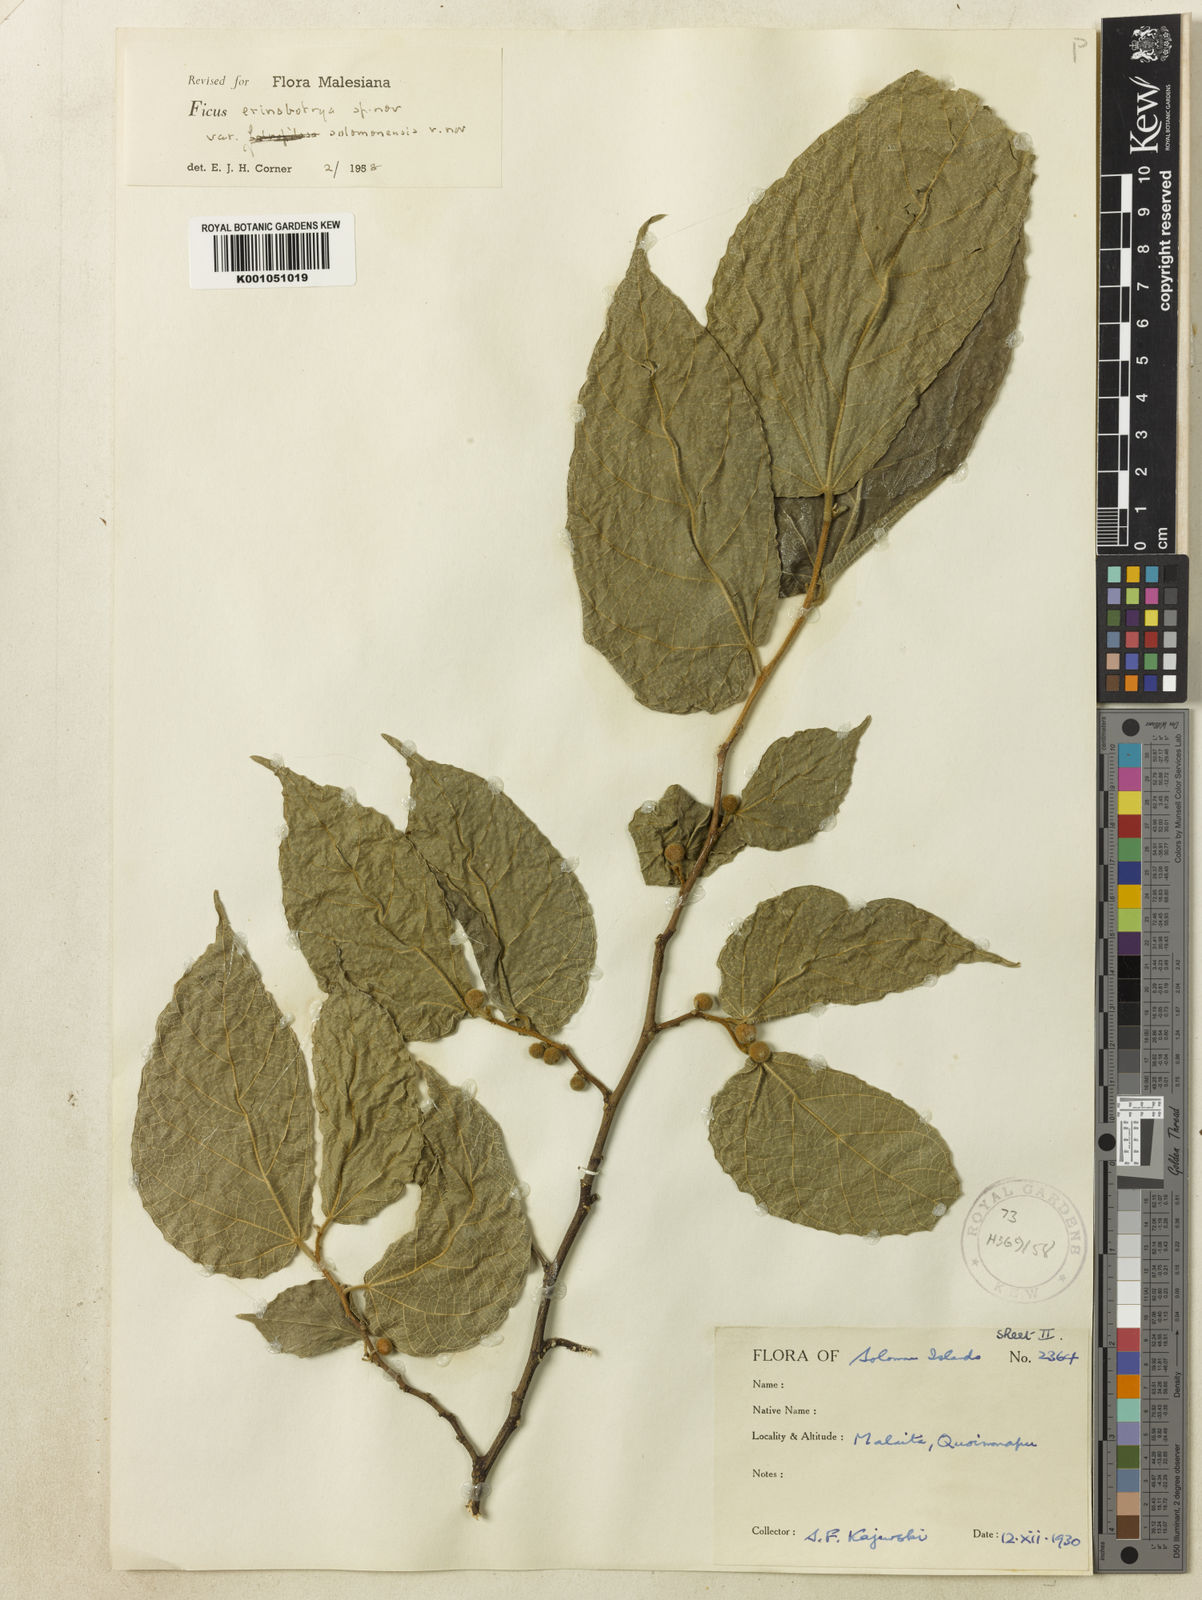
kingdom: Plantae
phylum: Tracheophyta
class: Magnoliopsida
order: Rosales
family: Moraceae
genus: Ficus
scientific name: Ficus erinobotrya
